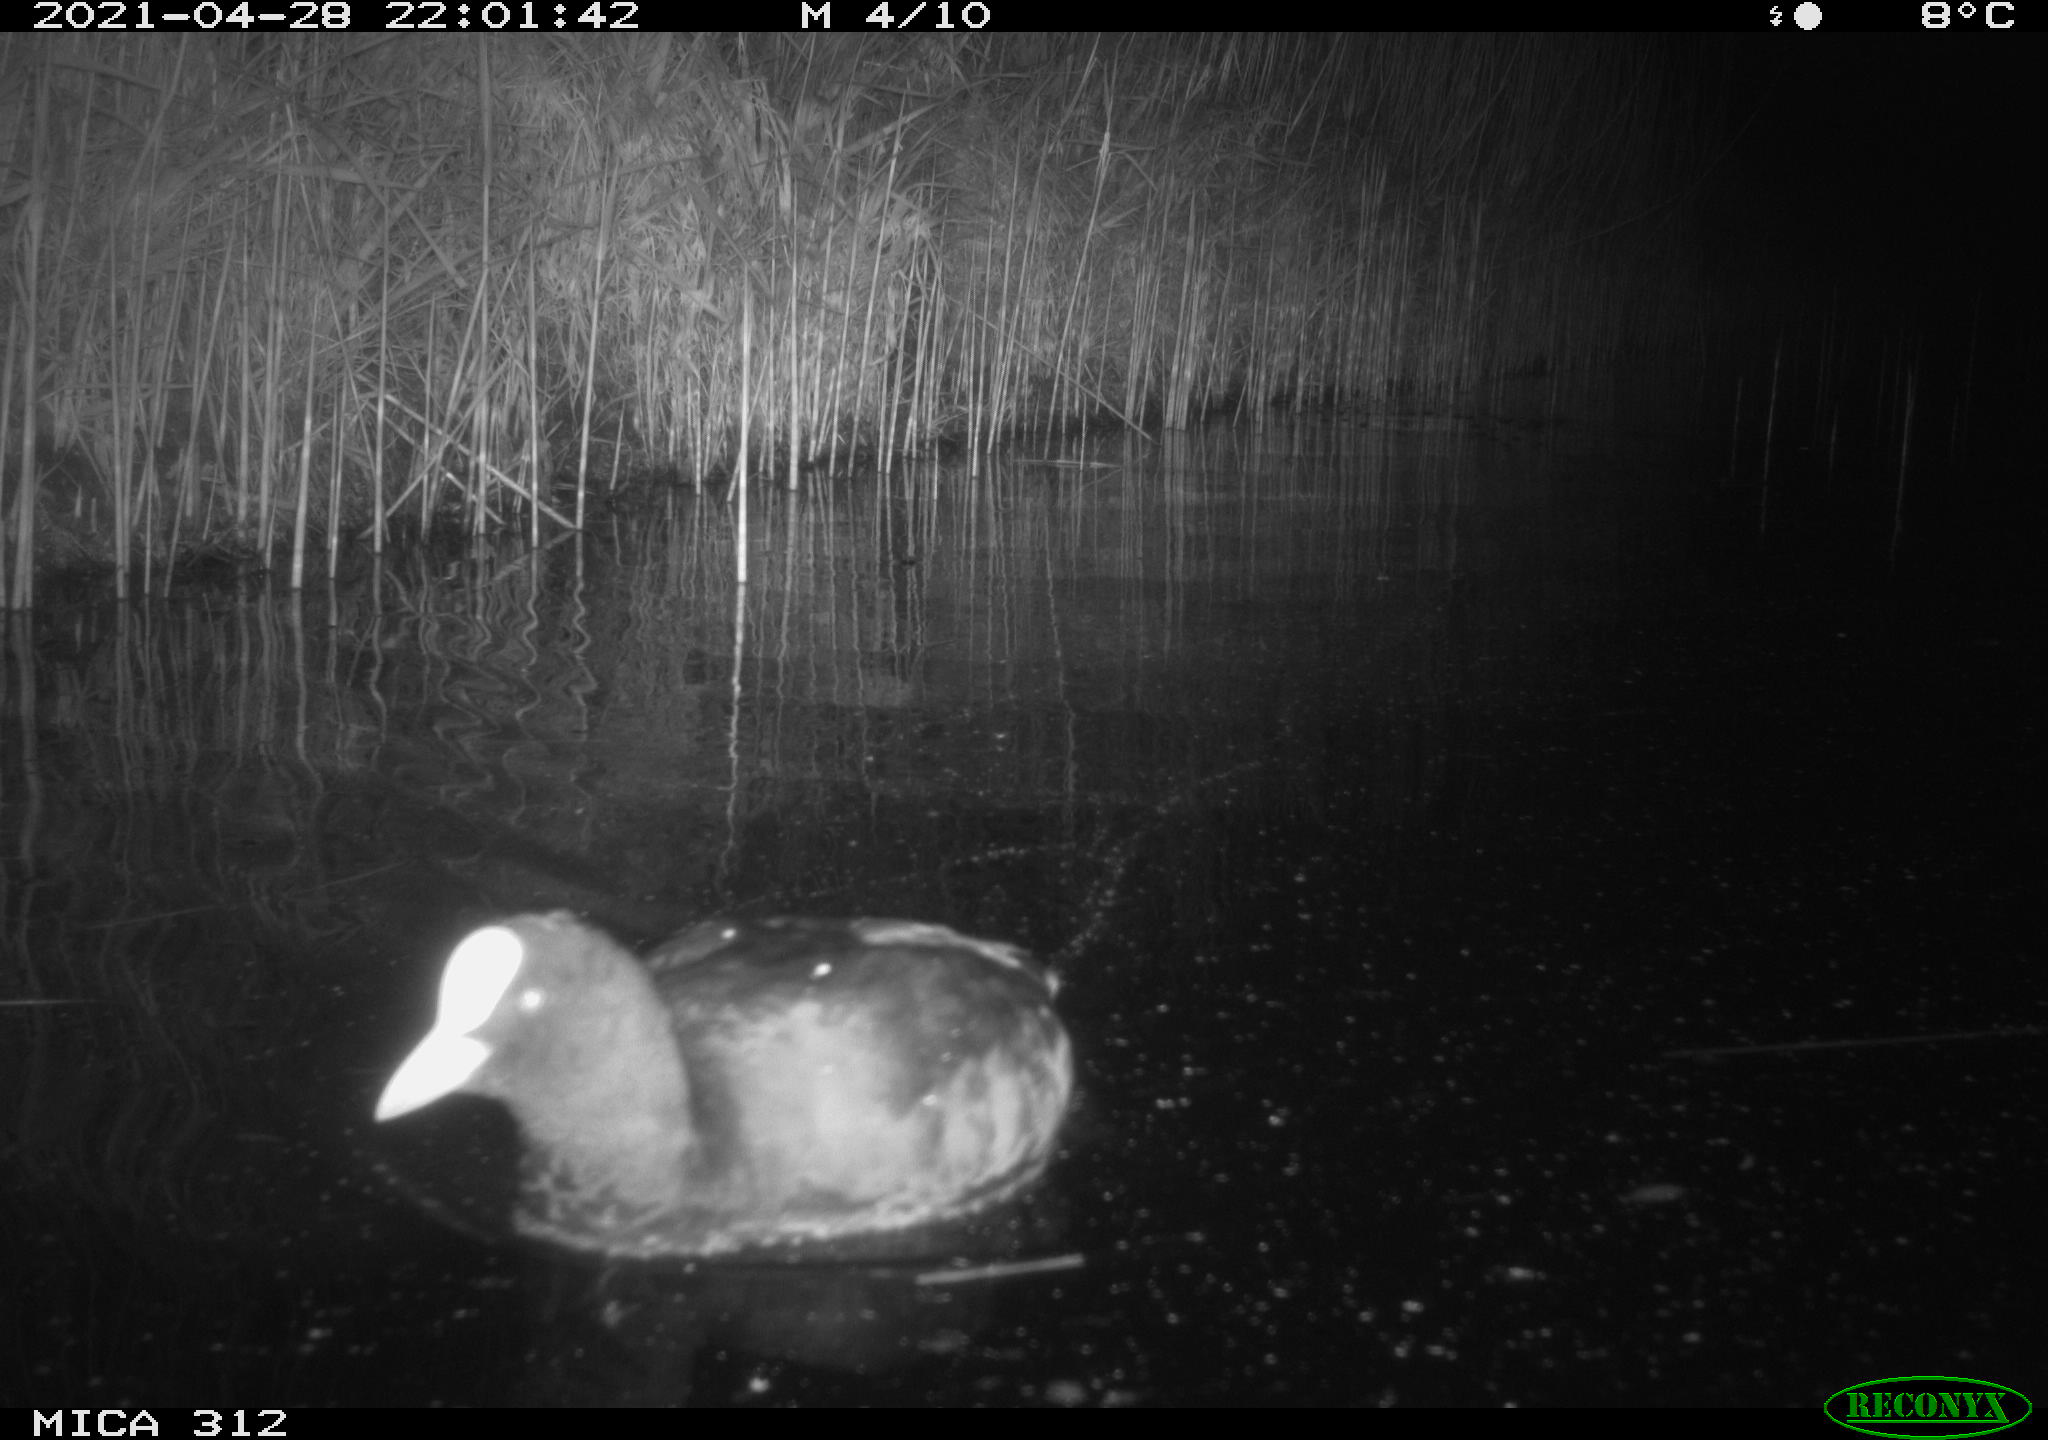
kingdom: Animalia
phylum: Chordata
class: Aves
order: Gruiformes
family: Rallidae
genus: Fulica
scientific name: Fulica atra
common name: Eurasian coot
